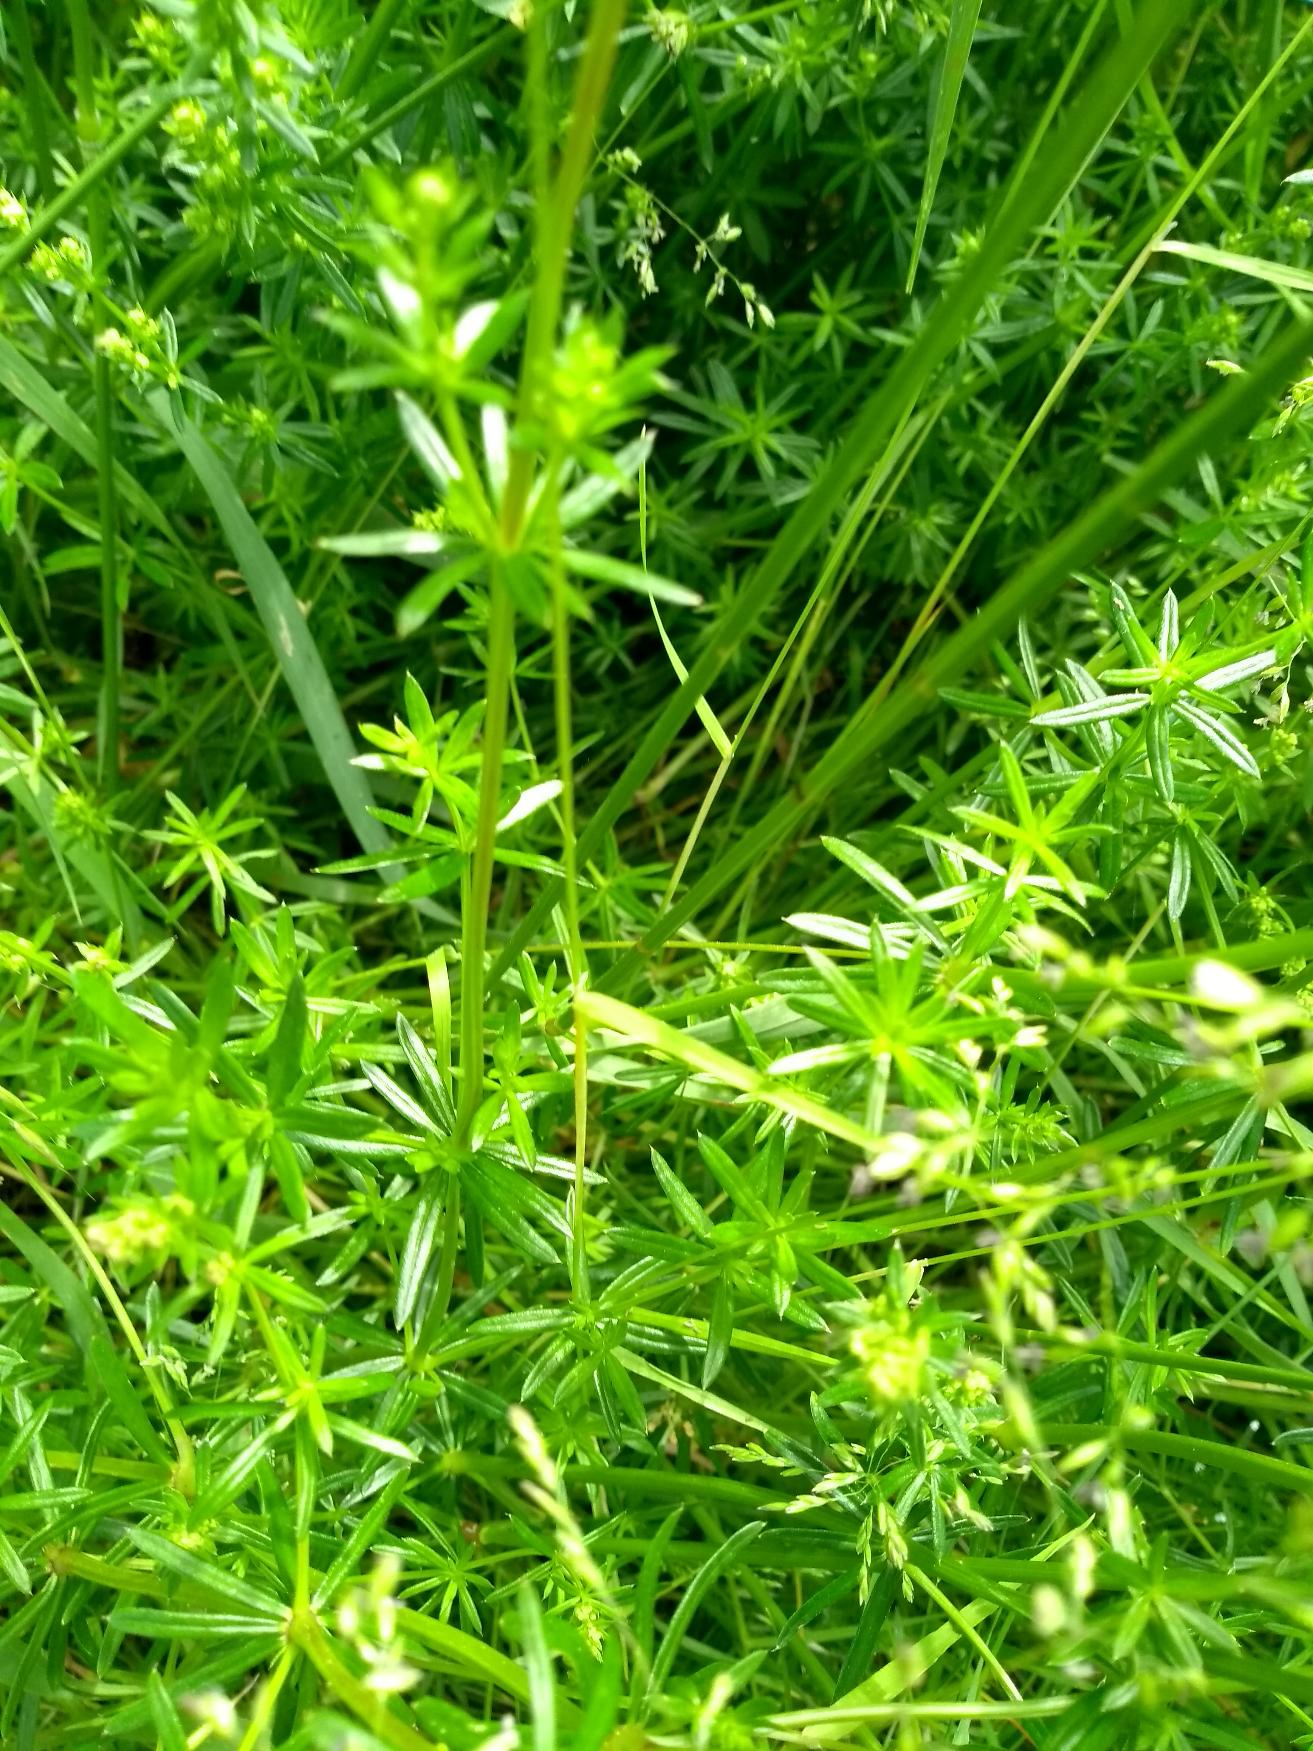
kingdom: Plantae
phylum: Tracheophyta
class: Magnoliopsida
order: Gentianales
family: Rubiaceae
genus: Galium
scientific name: Galium mollugo
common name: Hvid snerre
